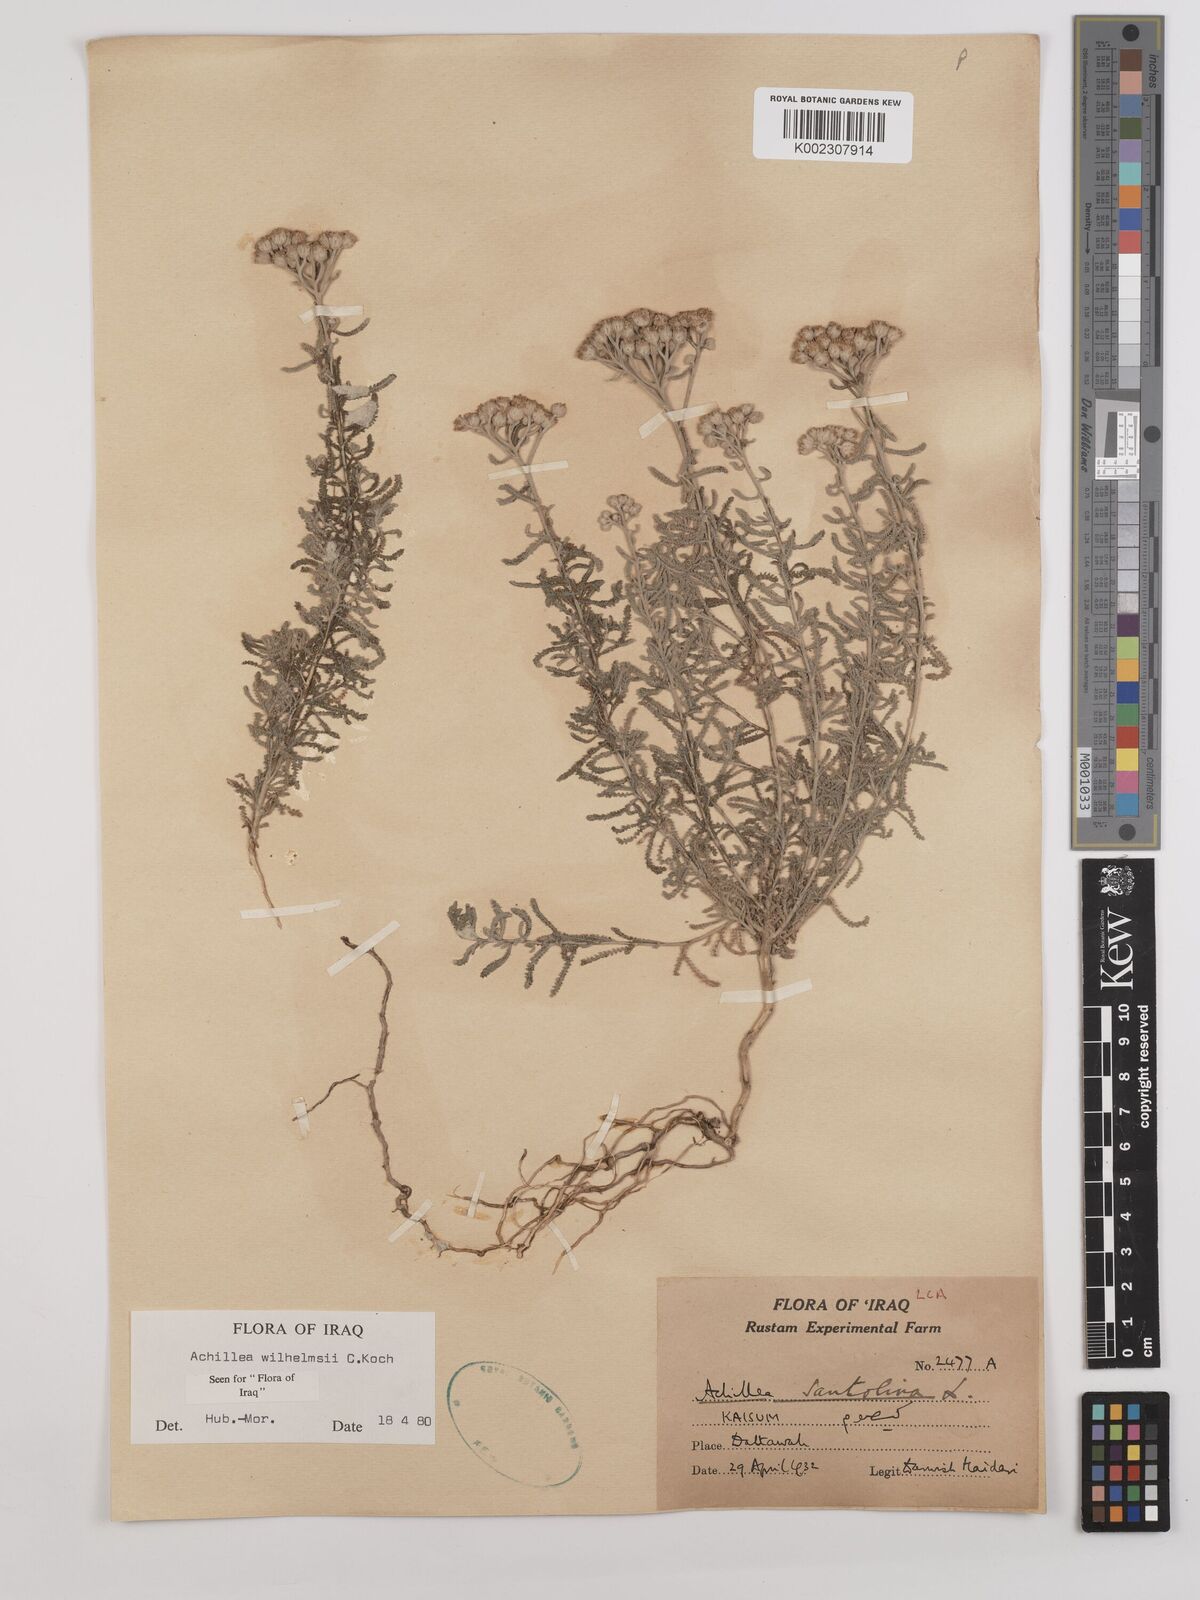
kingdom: Plantae
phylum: Tracheophyta
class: Magnoliopsida
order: Asterales
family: Asteraceae
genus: Achillea
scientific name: Achillea wilhelmsii
